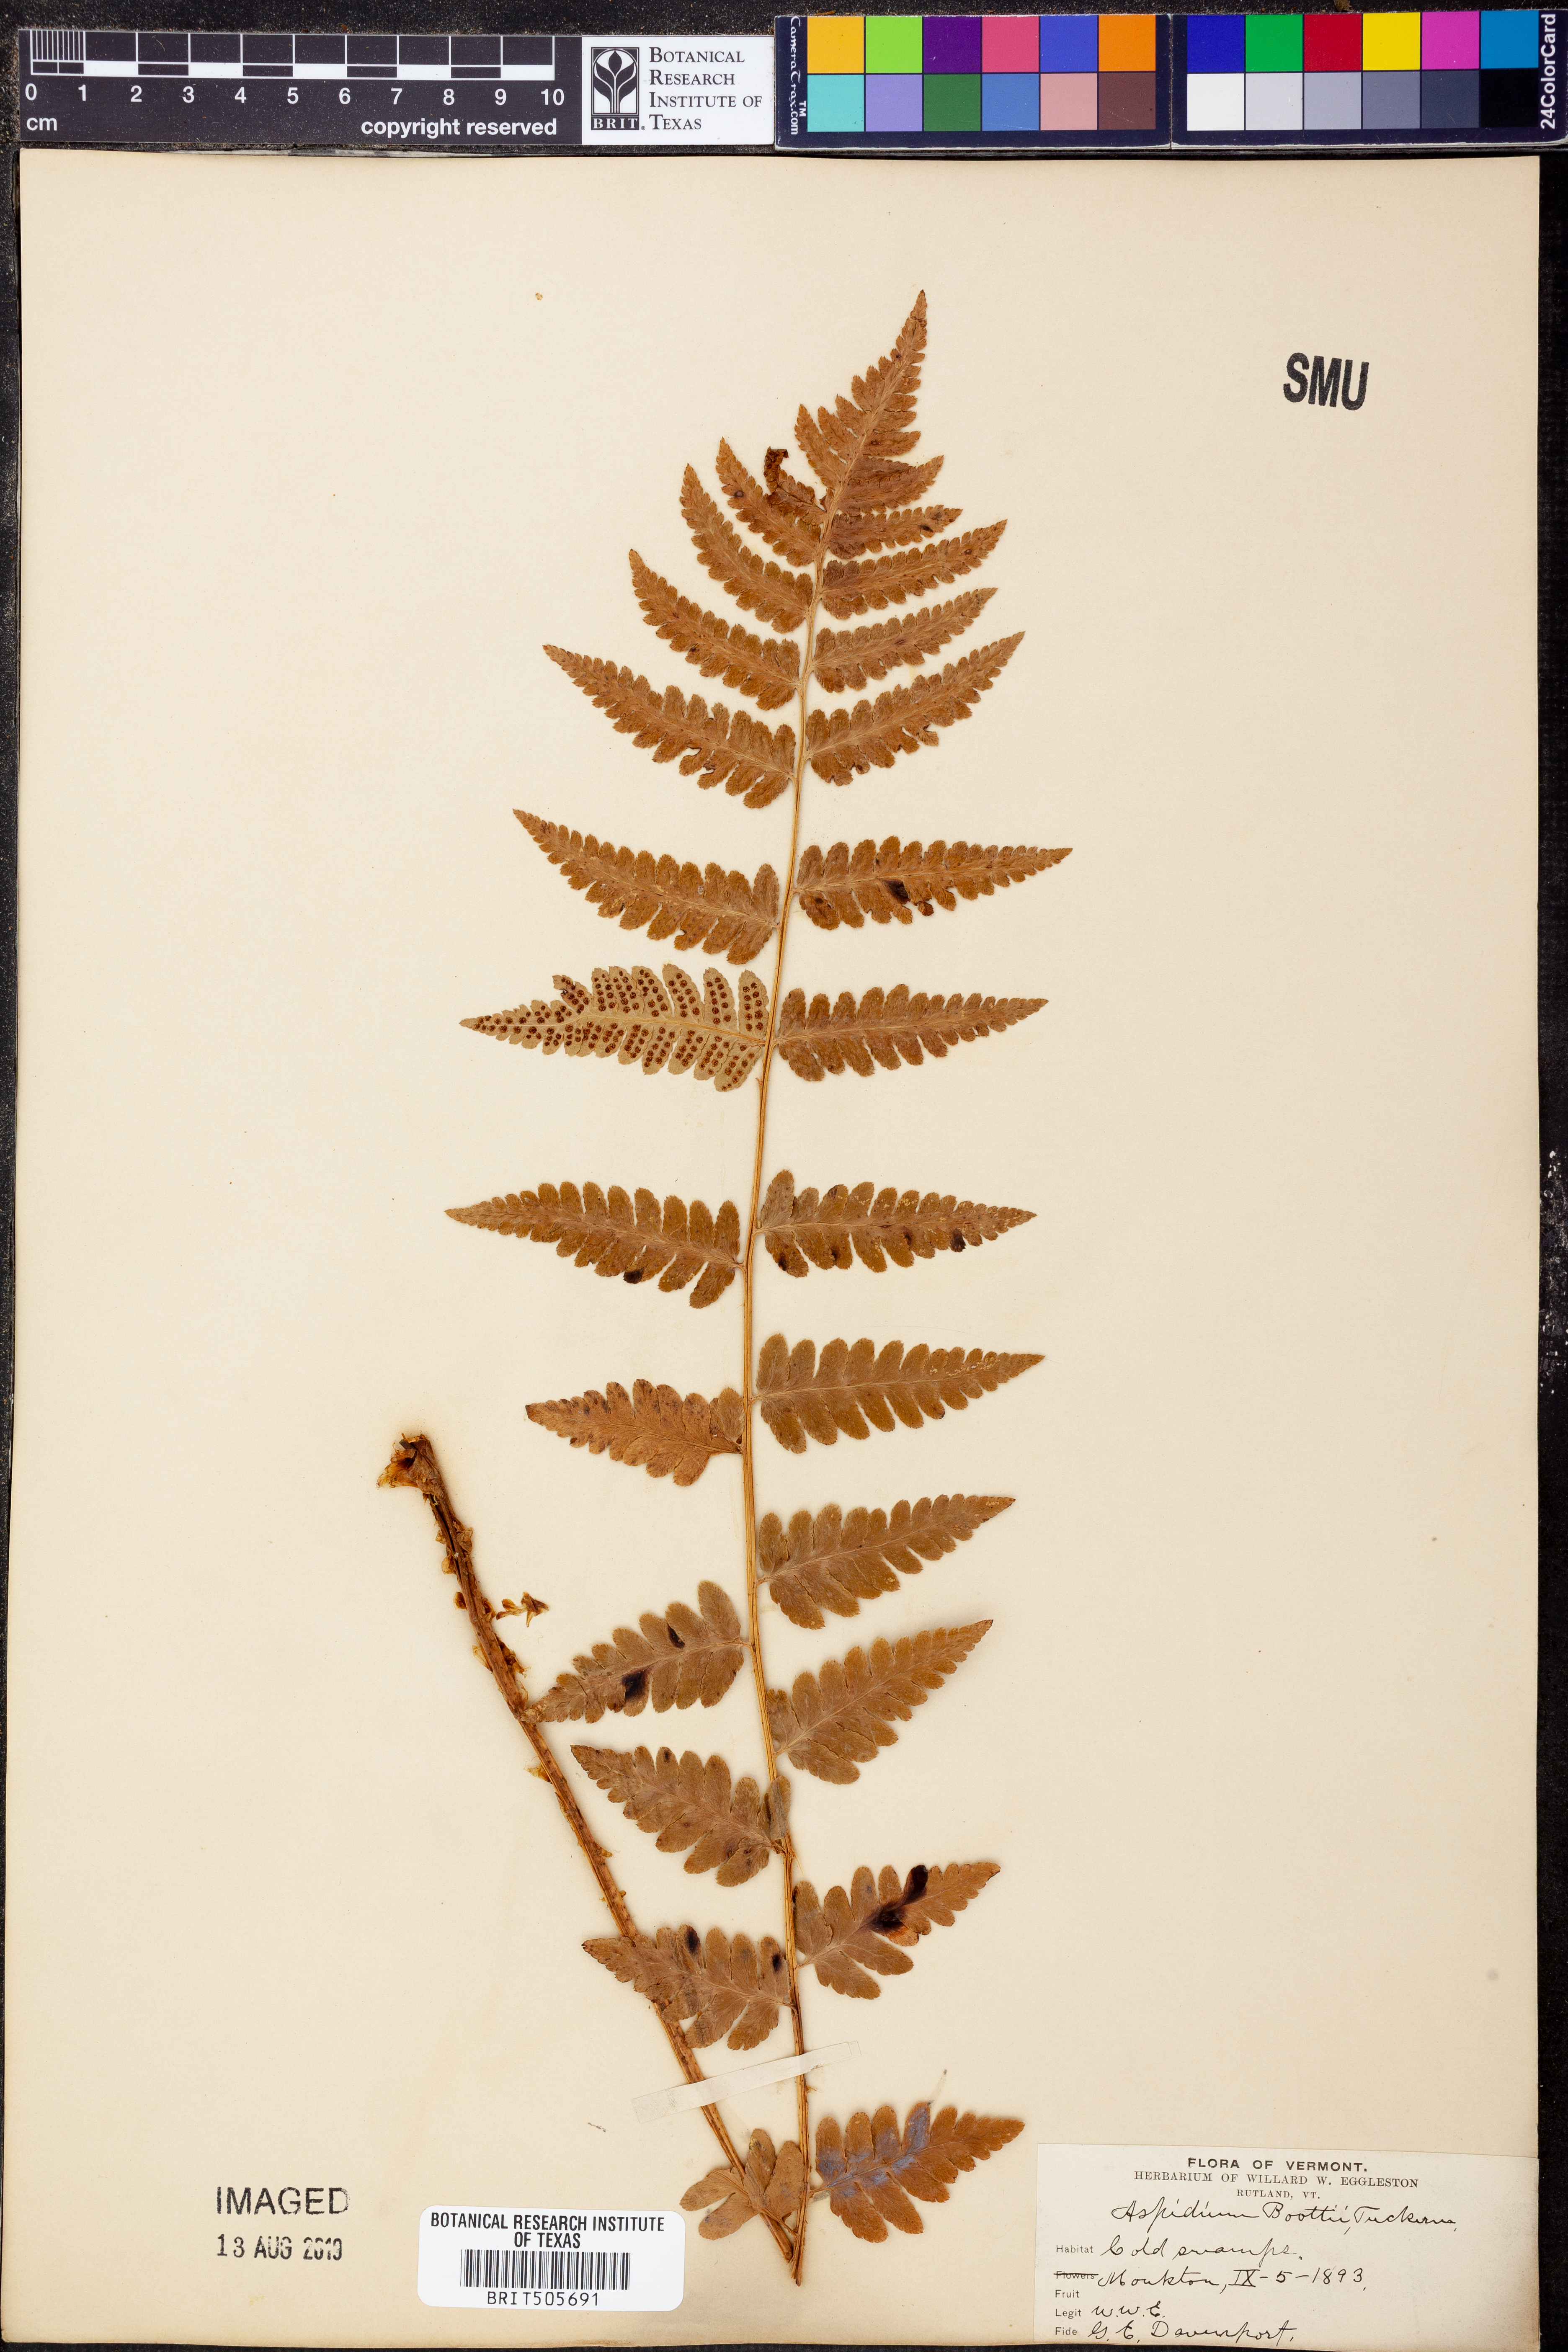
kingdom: Plantae
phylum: Tracheophyta
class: Polypodiopsida
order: Polypodiales
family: Dryopteridaceae
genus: Dryopteris
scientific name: Dryopteris boottii
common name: Boott's fern
